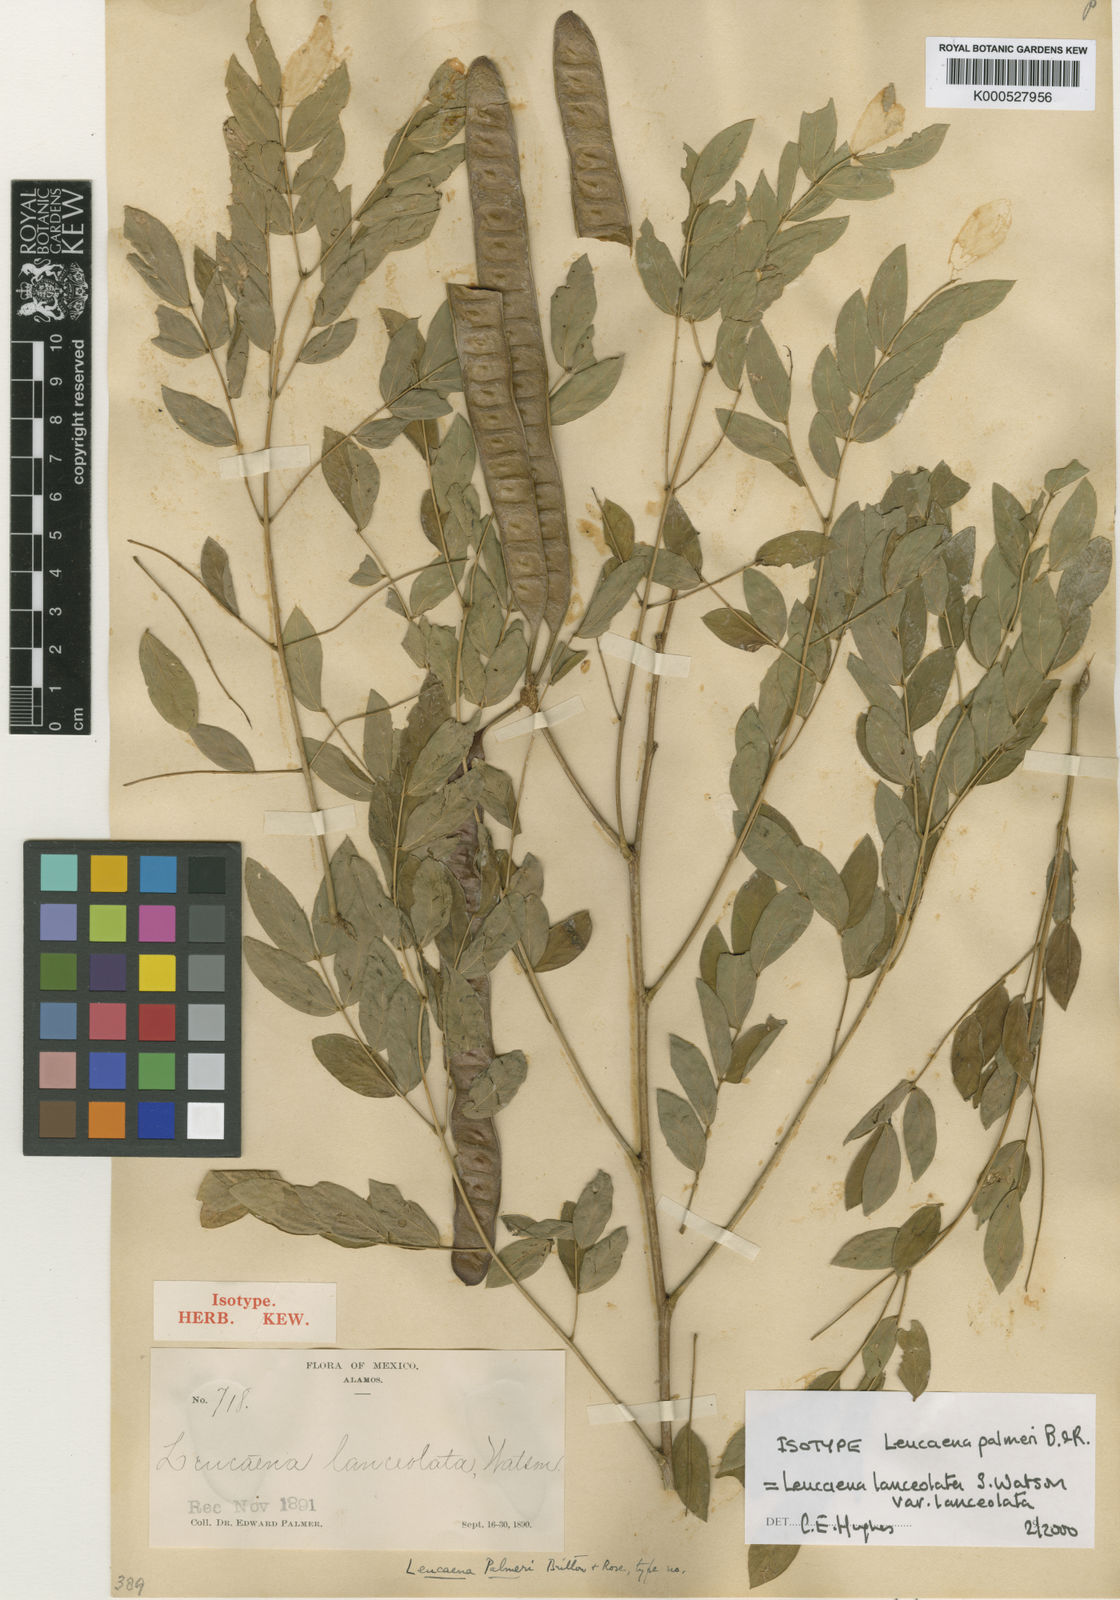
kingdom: Plantae
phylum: Tracheophyta
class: Magnoliopsida
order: Fabales
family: Fabaceae
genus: Leucaena
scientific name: Leucaena lanceolata
